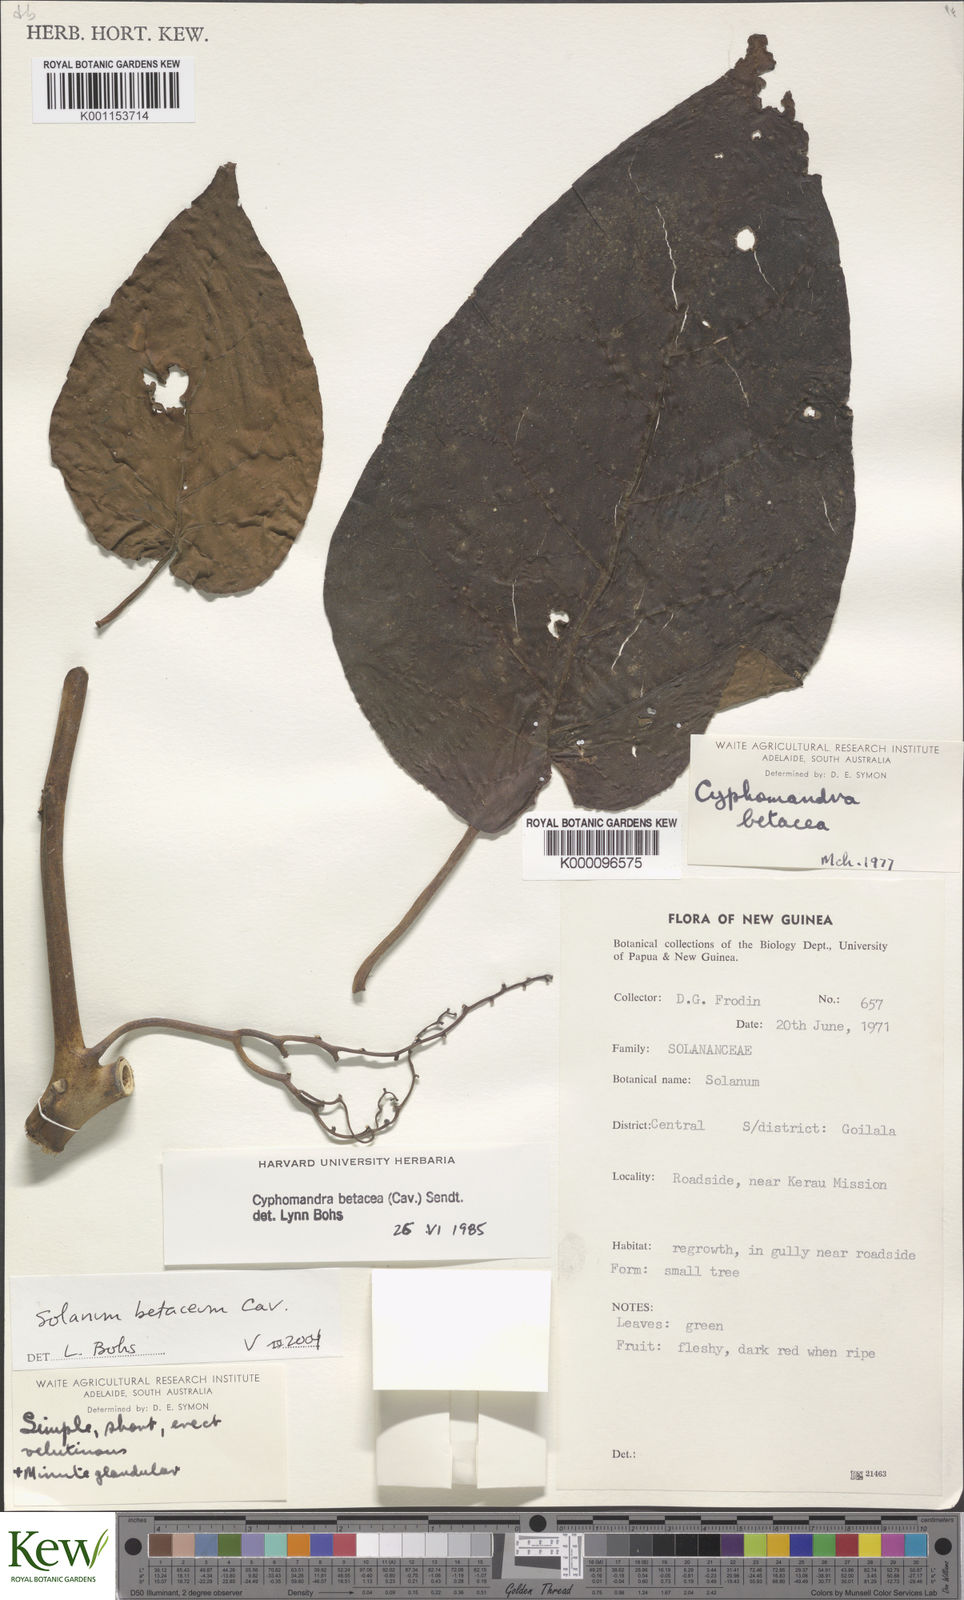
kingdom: Plantae
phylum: Tracheophyta
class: Magnoliopsida
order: Solanales
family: Solanaceae
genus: Solanum
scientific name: Solanum betaceum
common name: Tamarillo
